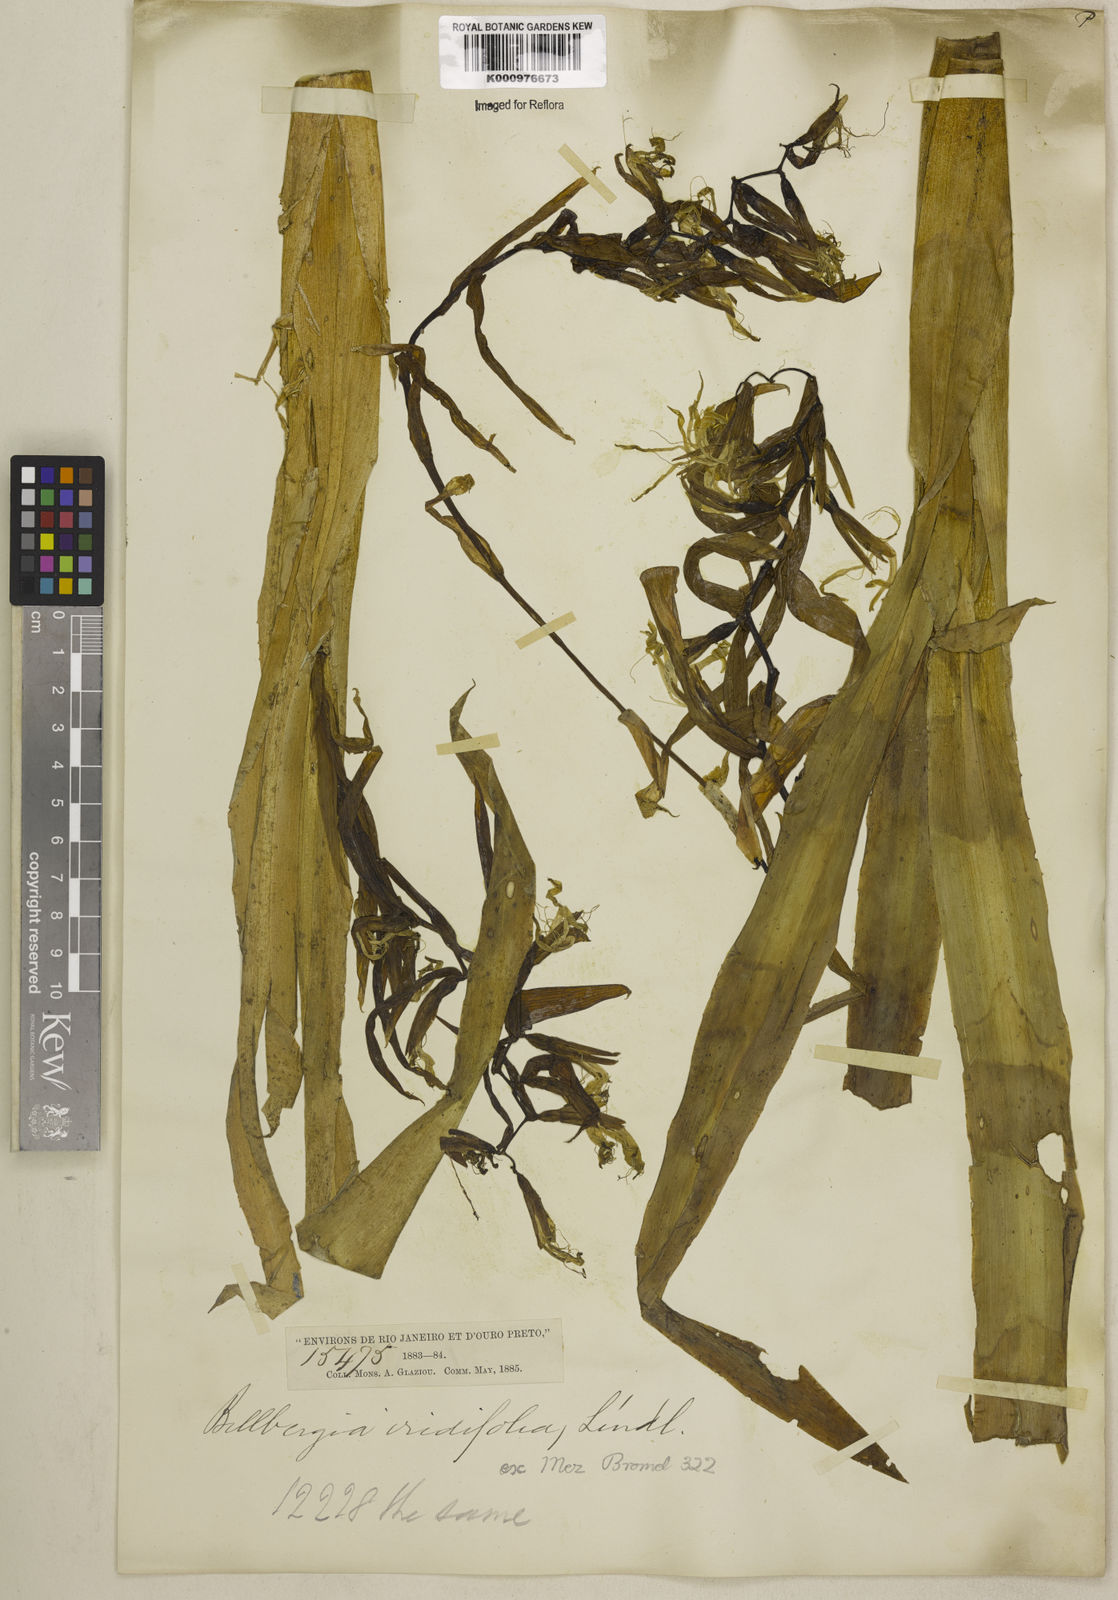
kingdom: Plantae
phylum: Tracheophyta
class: Liliopsida
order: Poales
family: Bromeliaceae
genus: Billbergia
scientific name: Billbergia iridifolia
